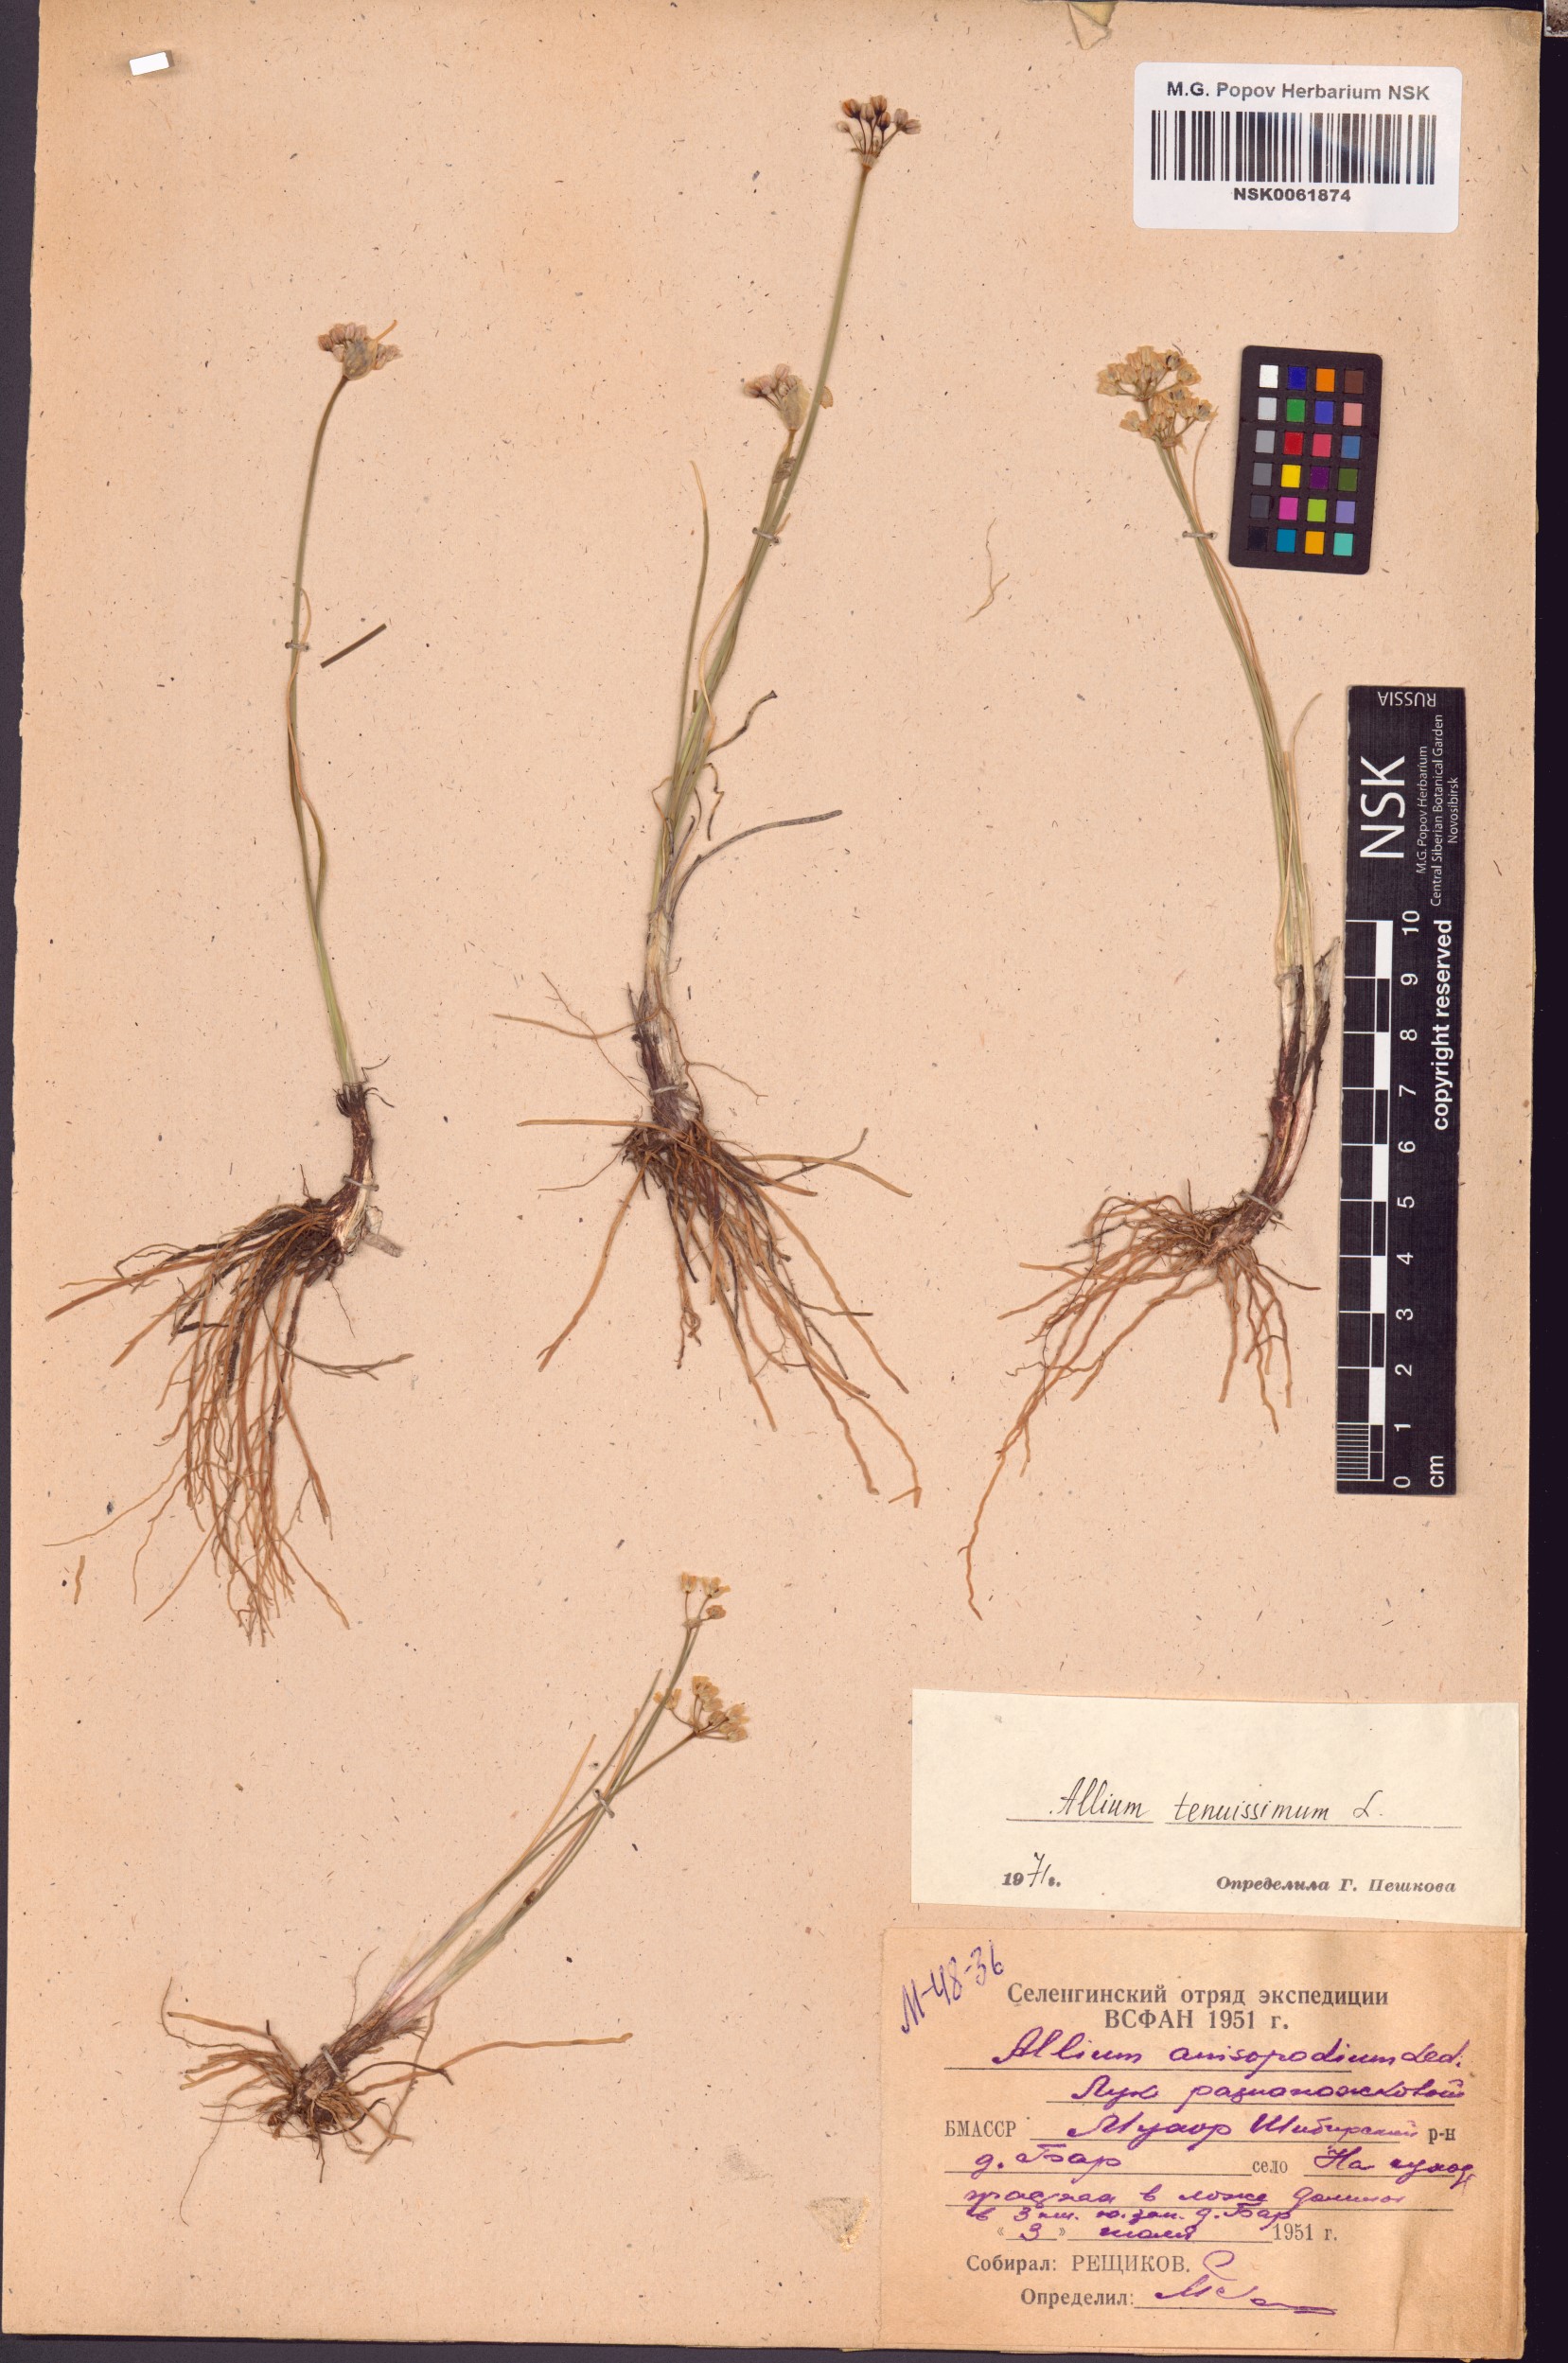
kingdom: Plantae
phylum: Tracheophyta
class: Liliopsida
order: Asparagales
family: Amaryllidaceae
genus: Allium
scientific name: Allium tenuissimum
